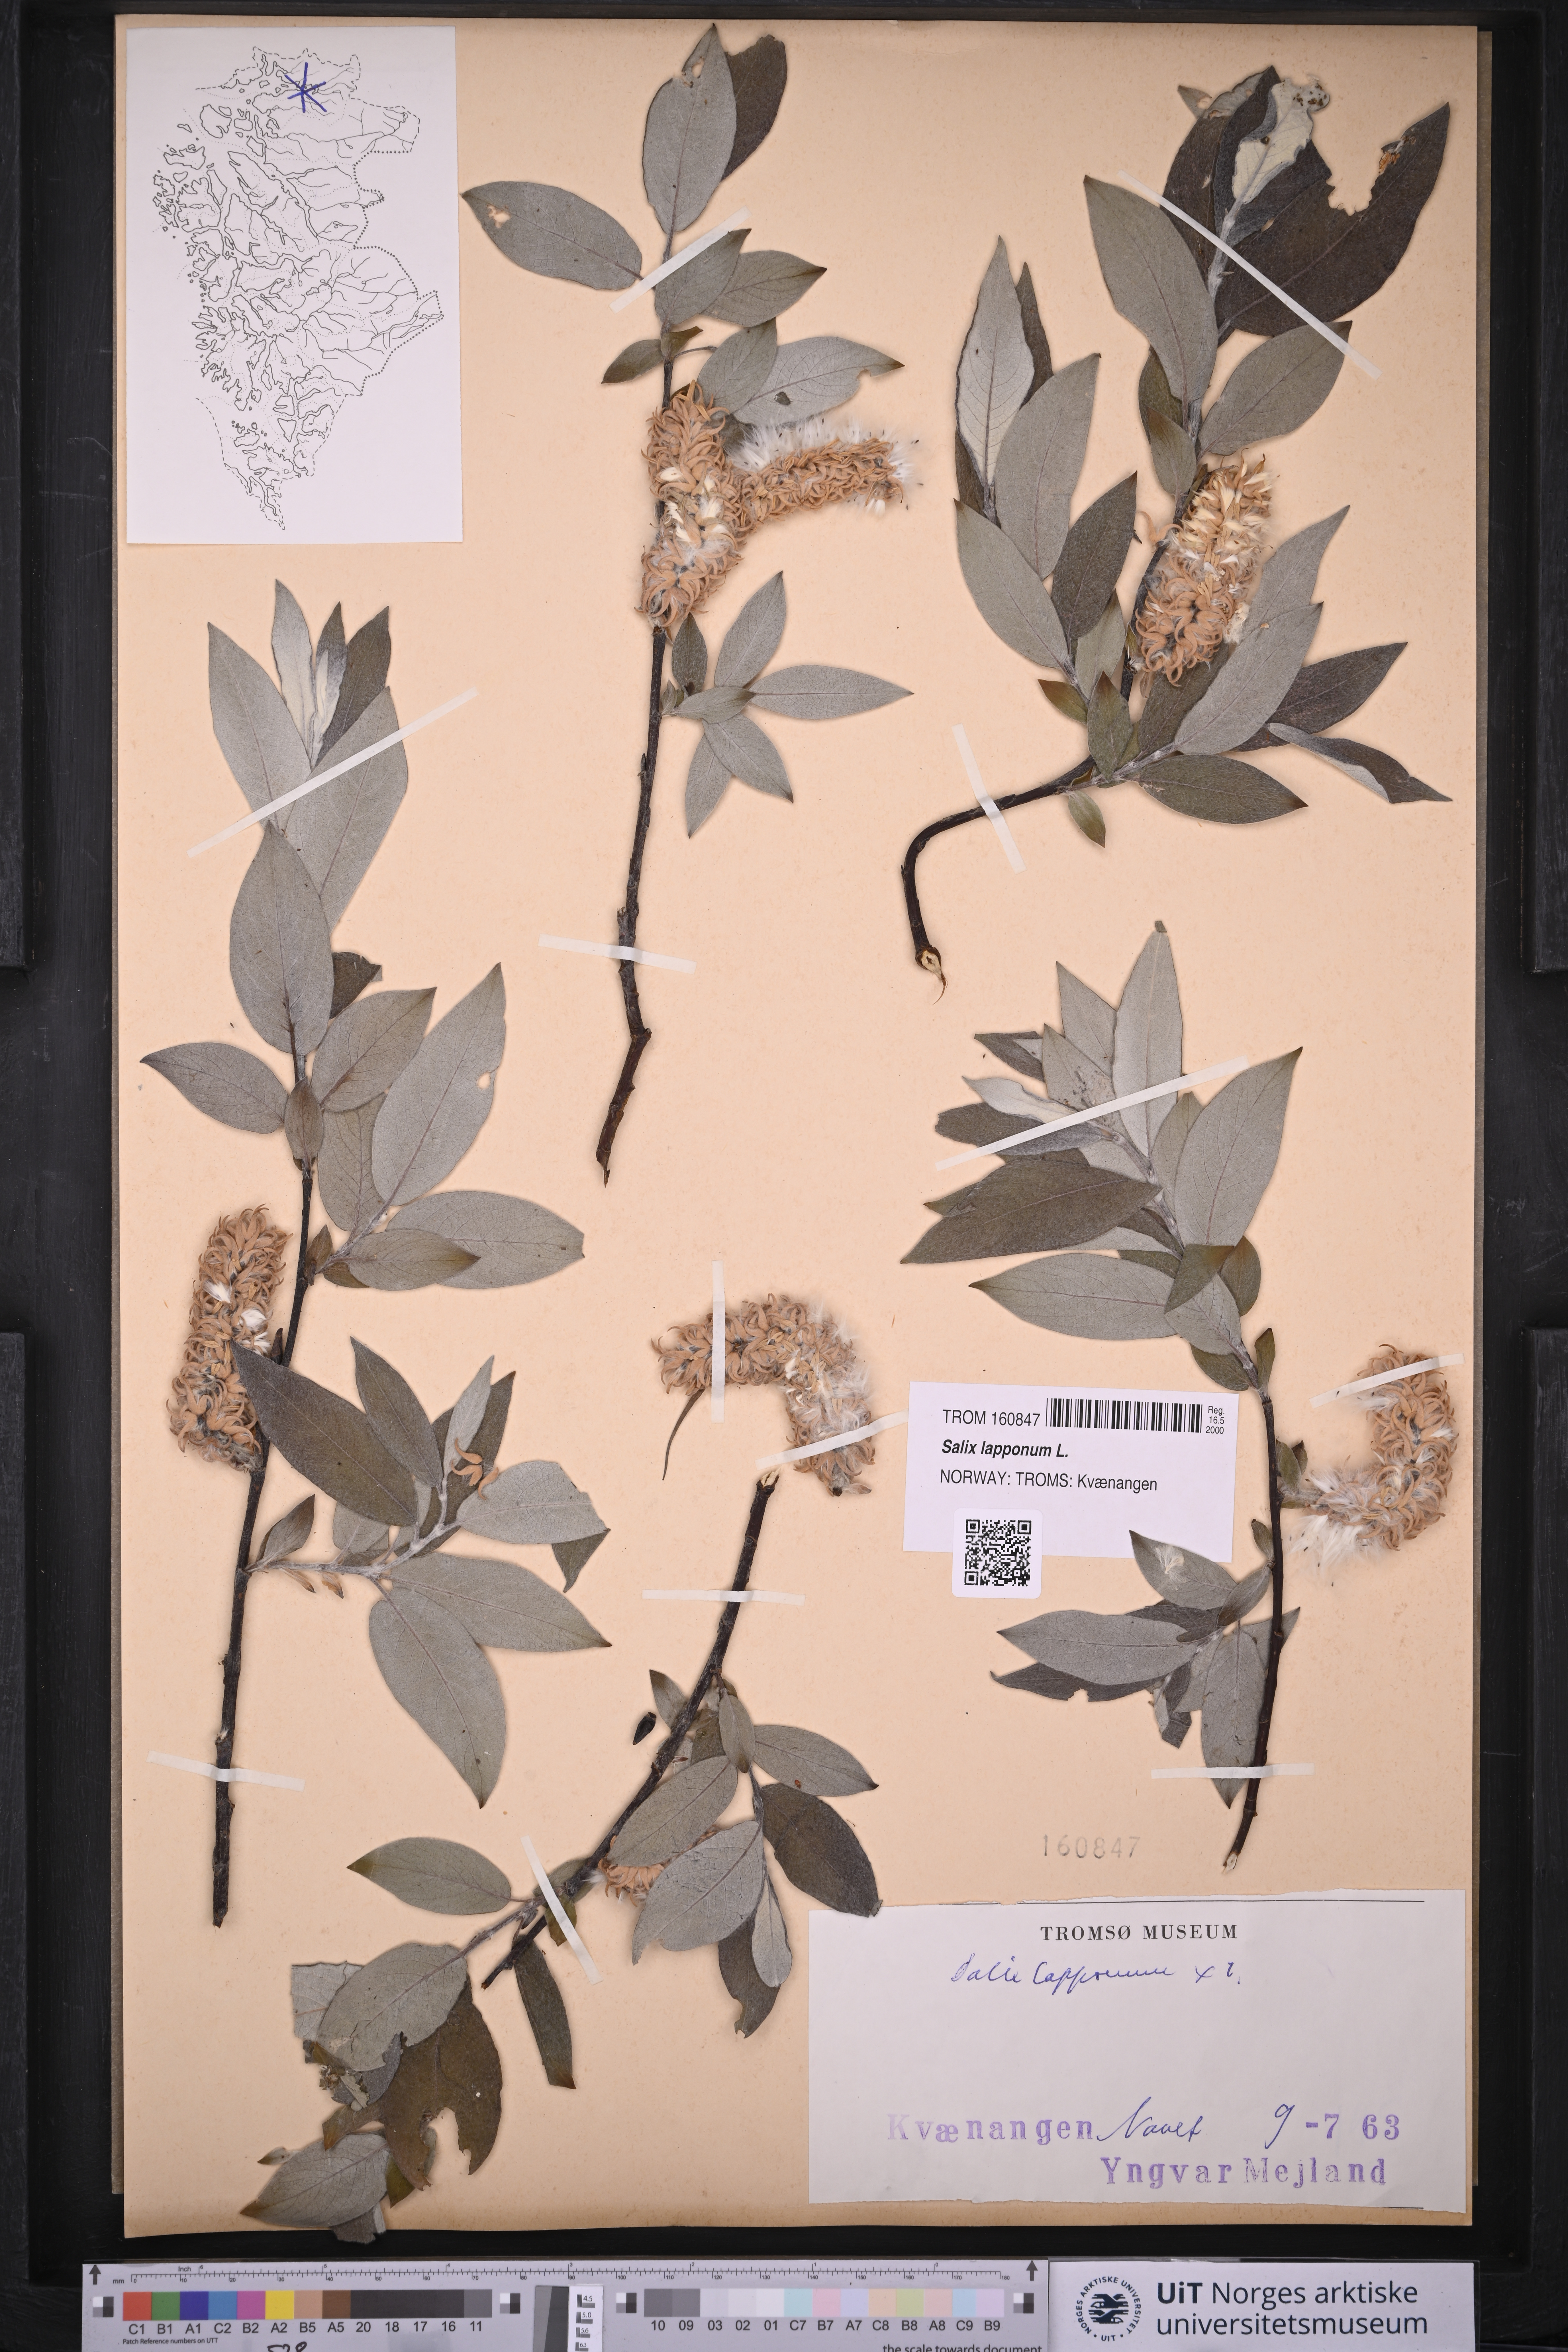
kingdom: Plantae
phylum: Tracheophyta
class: Magnoliopsida
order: Malpighiales
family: Salicaceae
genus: Salix
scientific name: Salix lapponum
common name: Downy willow
